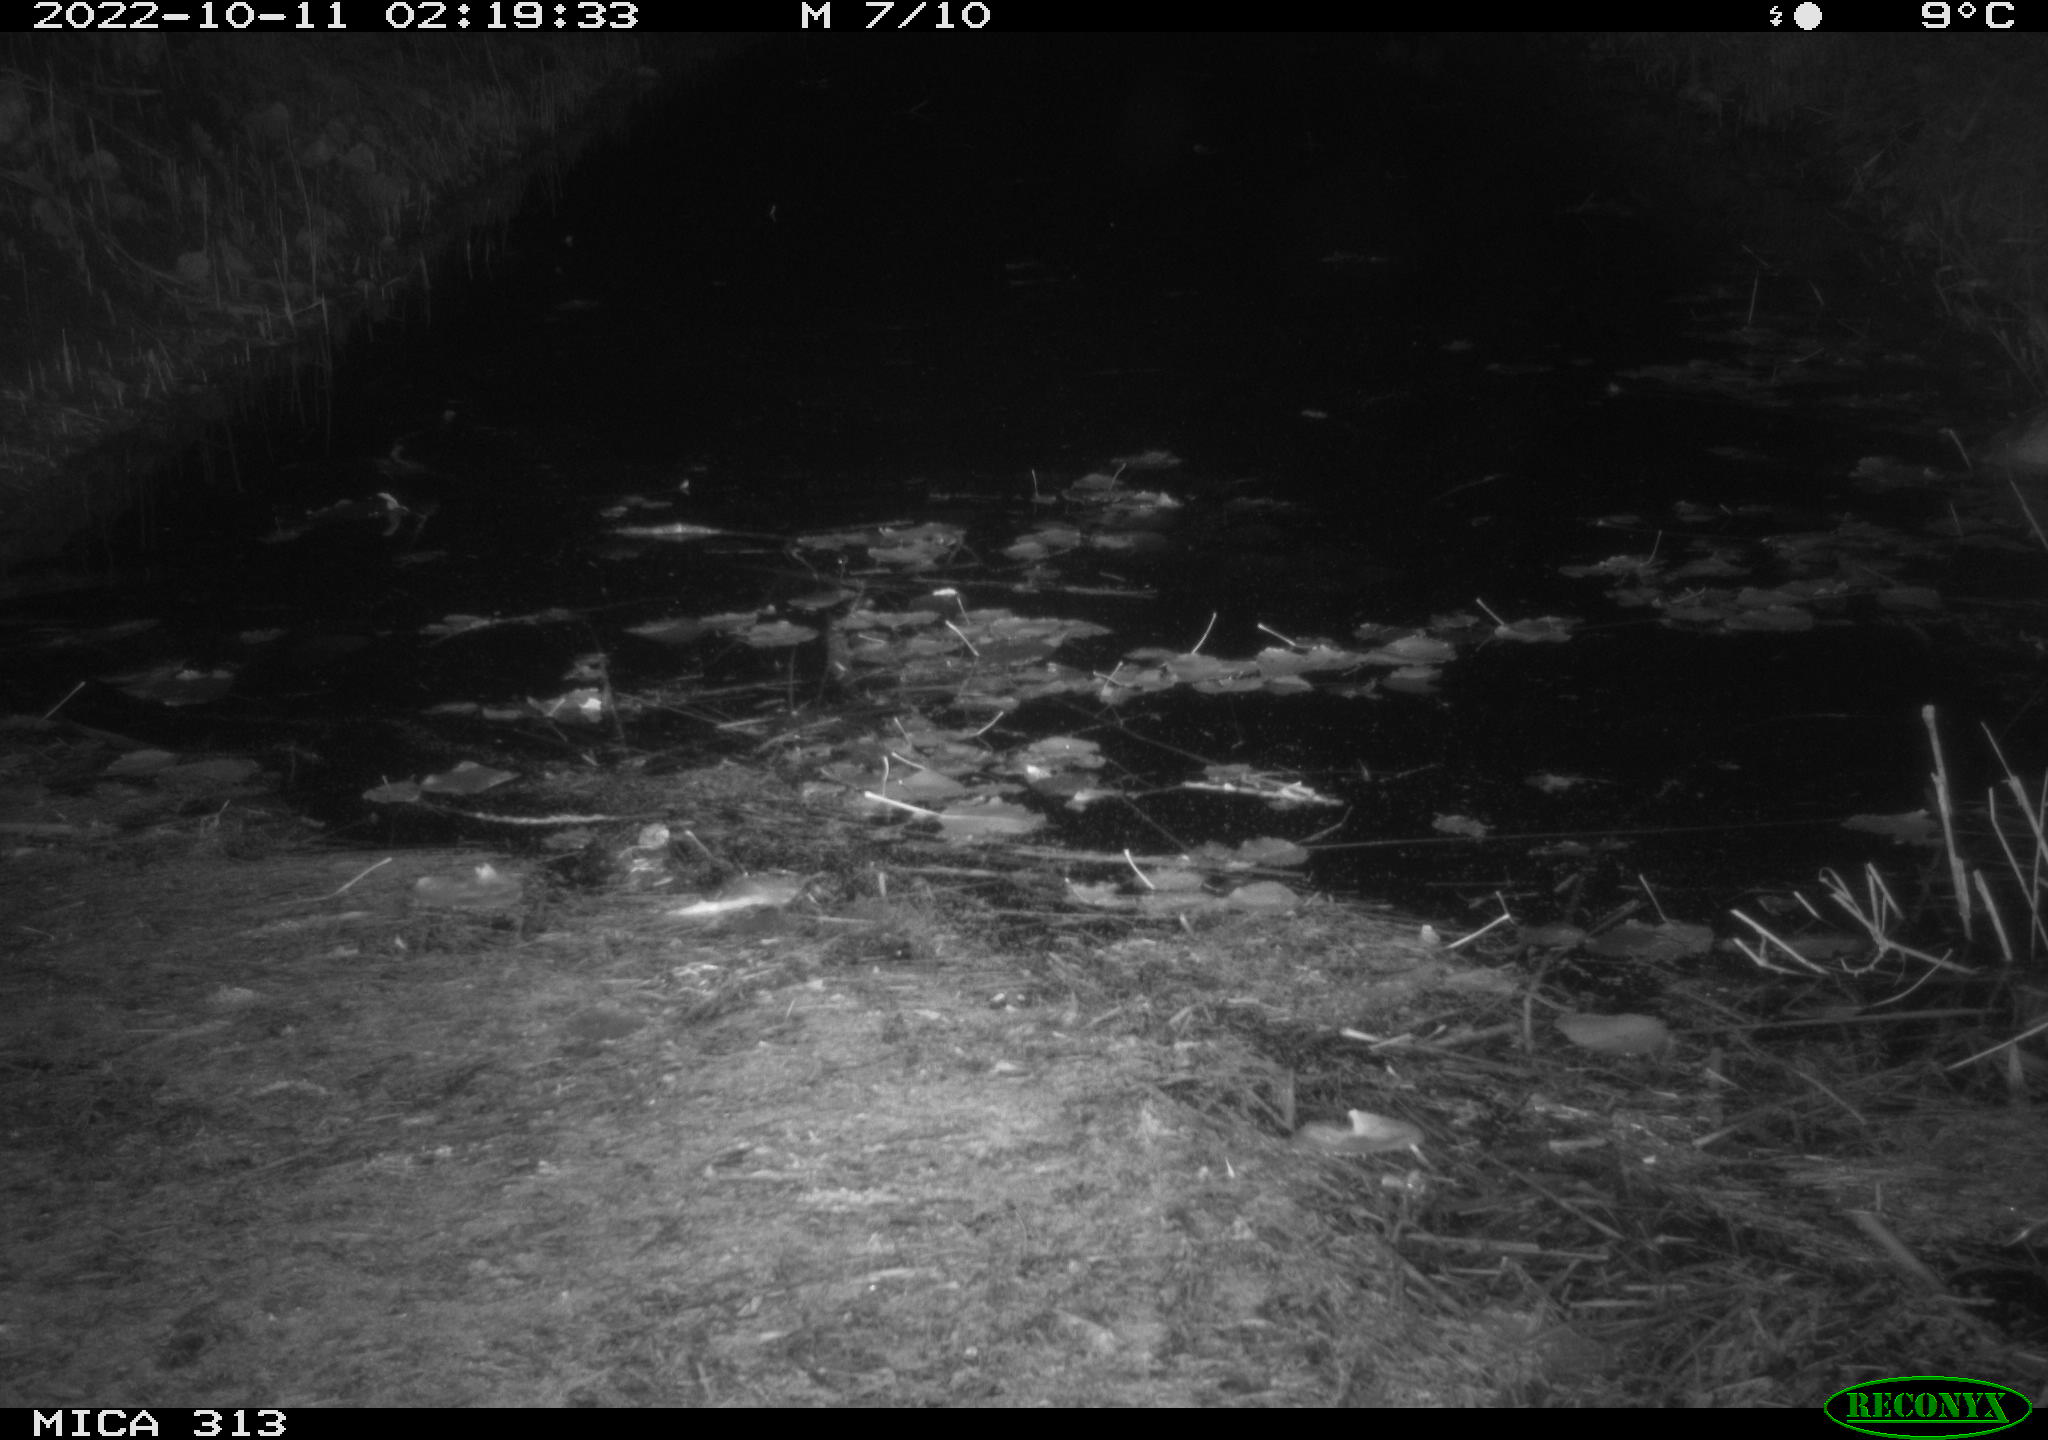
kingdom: Animalia
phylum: Chordata
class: Mammalia
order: Rodentia
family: Muridae
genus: Rattus
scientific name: Rattus norvegicus
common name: Brown rat
